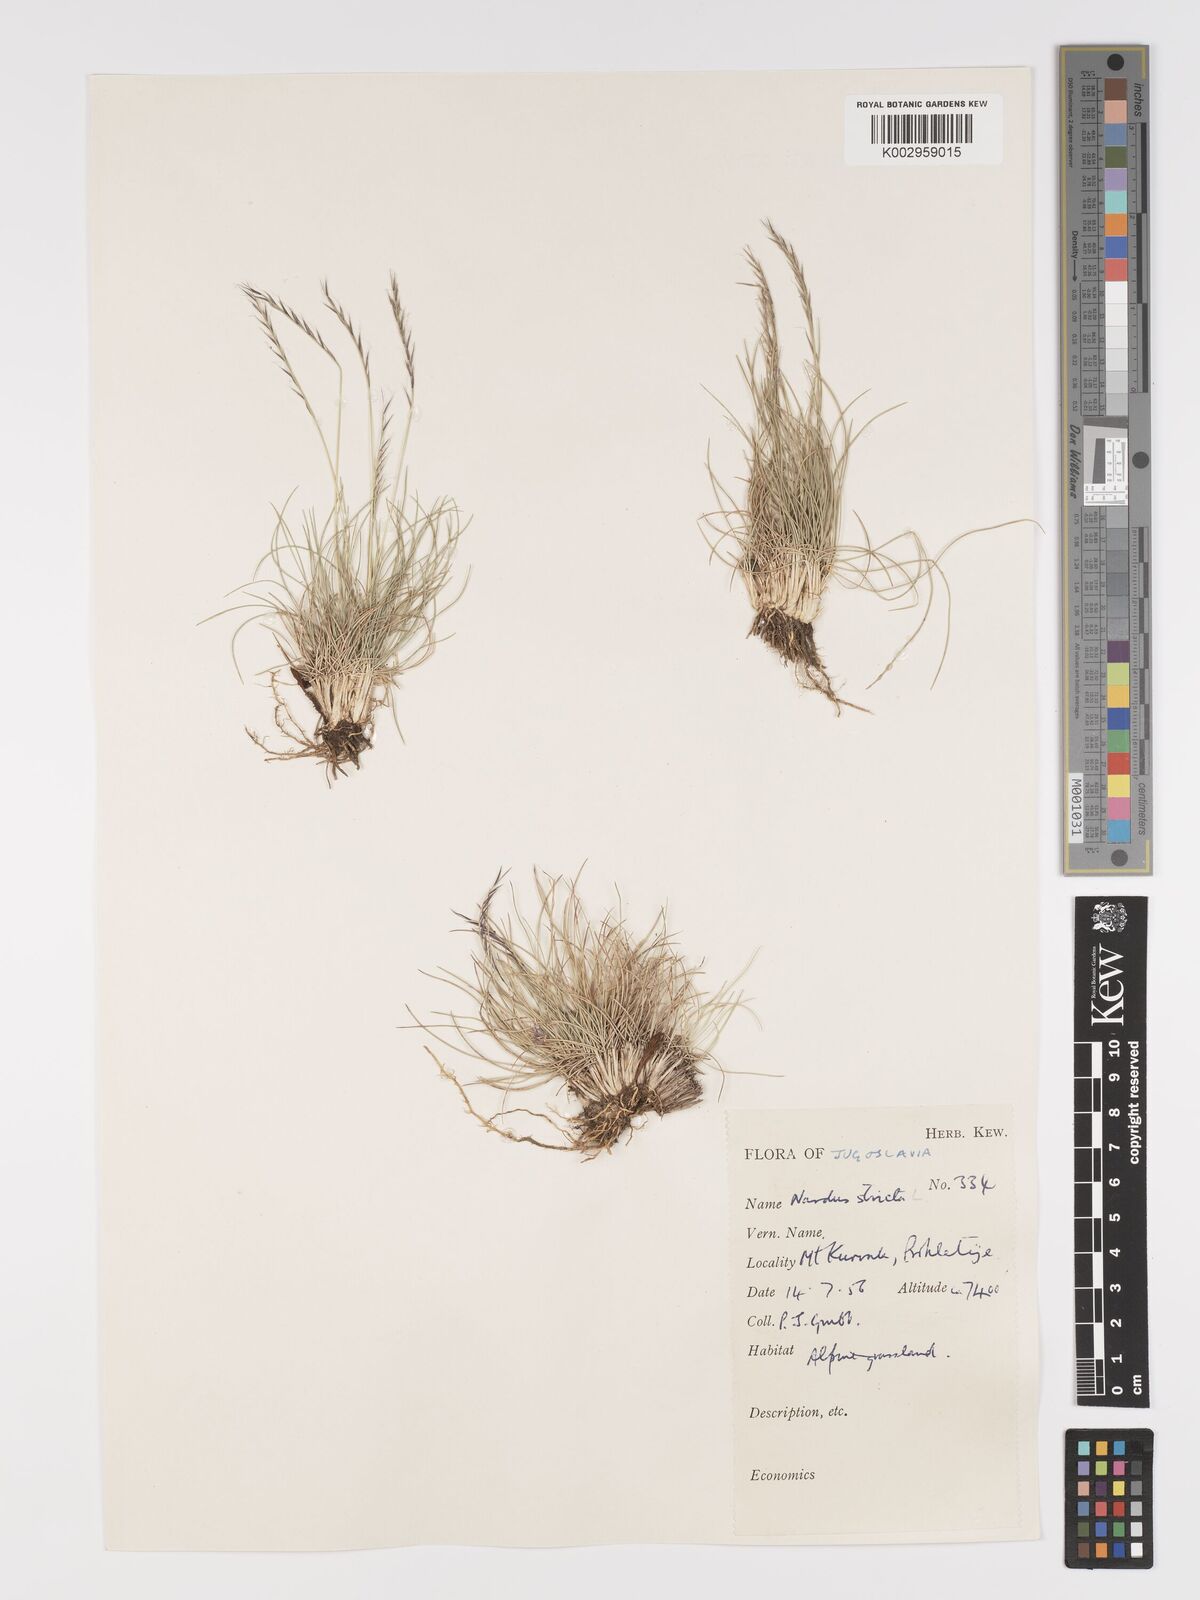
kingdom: Plantae
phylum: Tracheophyta
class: Liliopsida
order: Poales
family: Poaceae
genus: Nardus
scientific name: Nardus stricta
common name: Mat-grass
